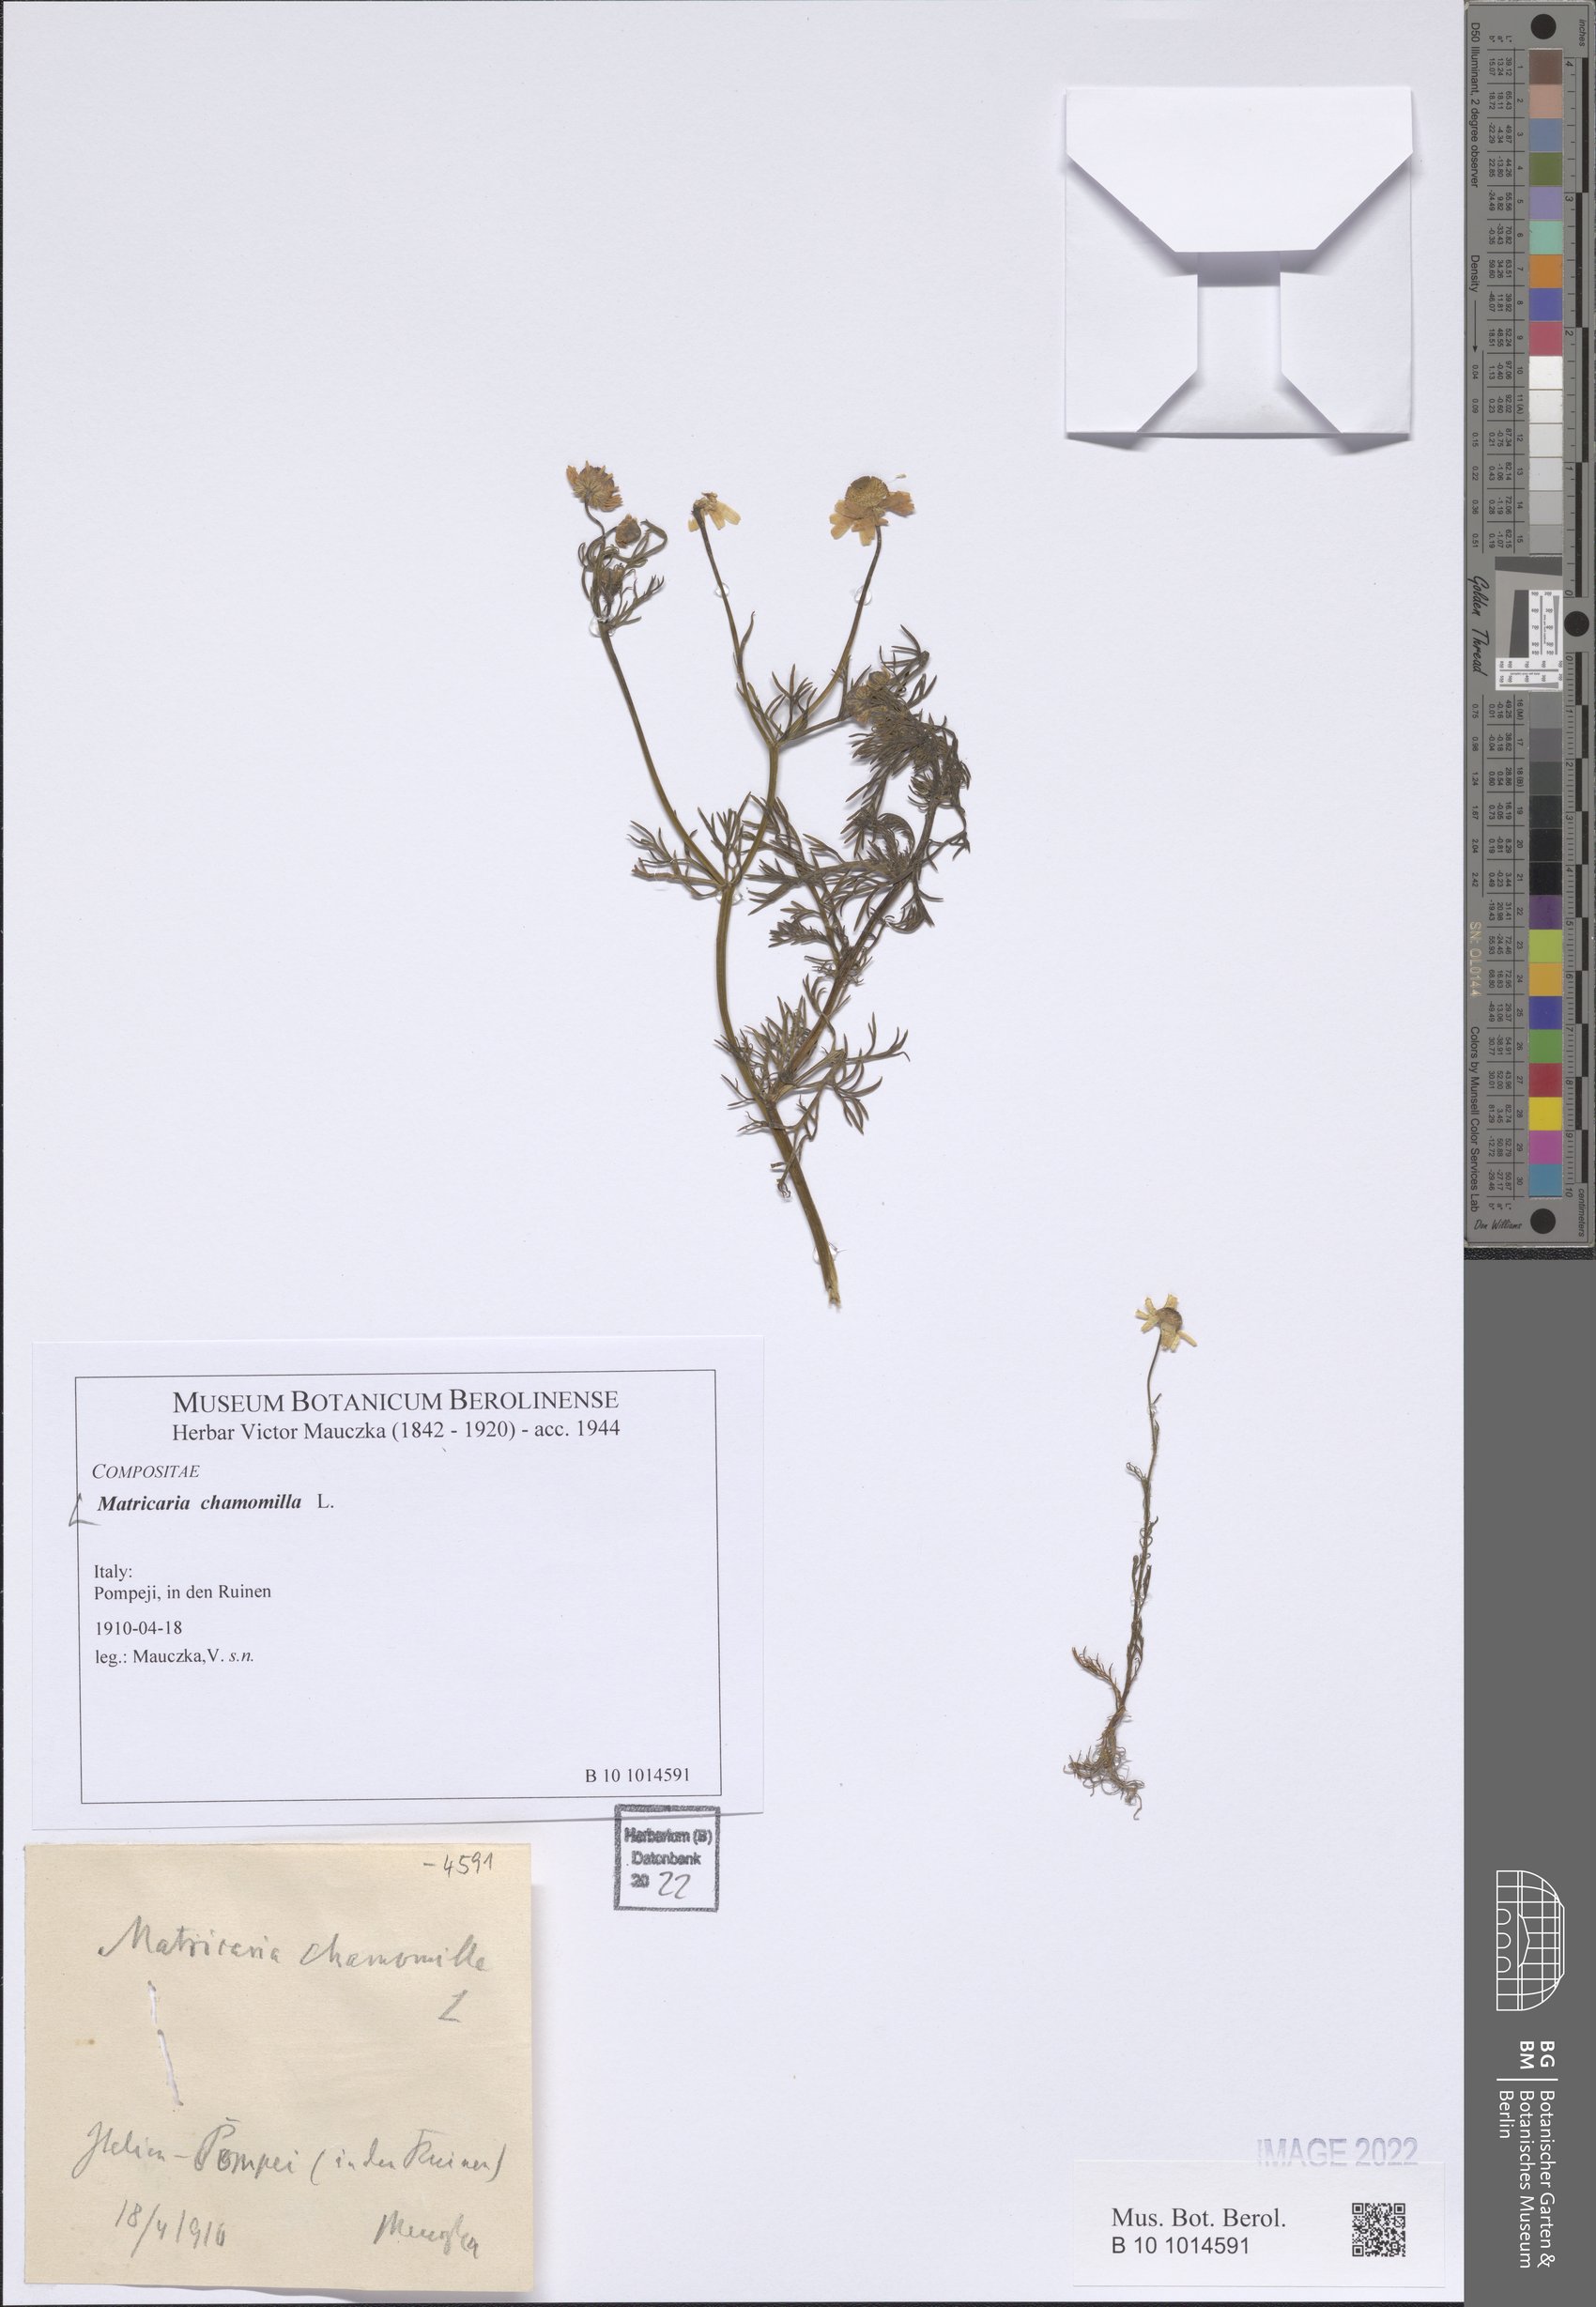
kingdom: Plantae
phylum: Tracheophyta
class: Magnoliopsida
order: Asterales
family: Asteraceae
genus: Matricaria
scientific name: Matricaria chamomilla
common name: Scented mayweed
